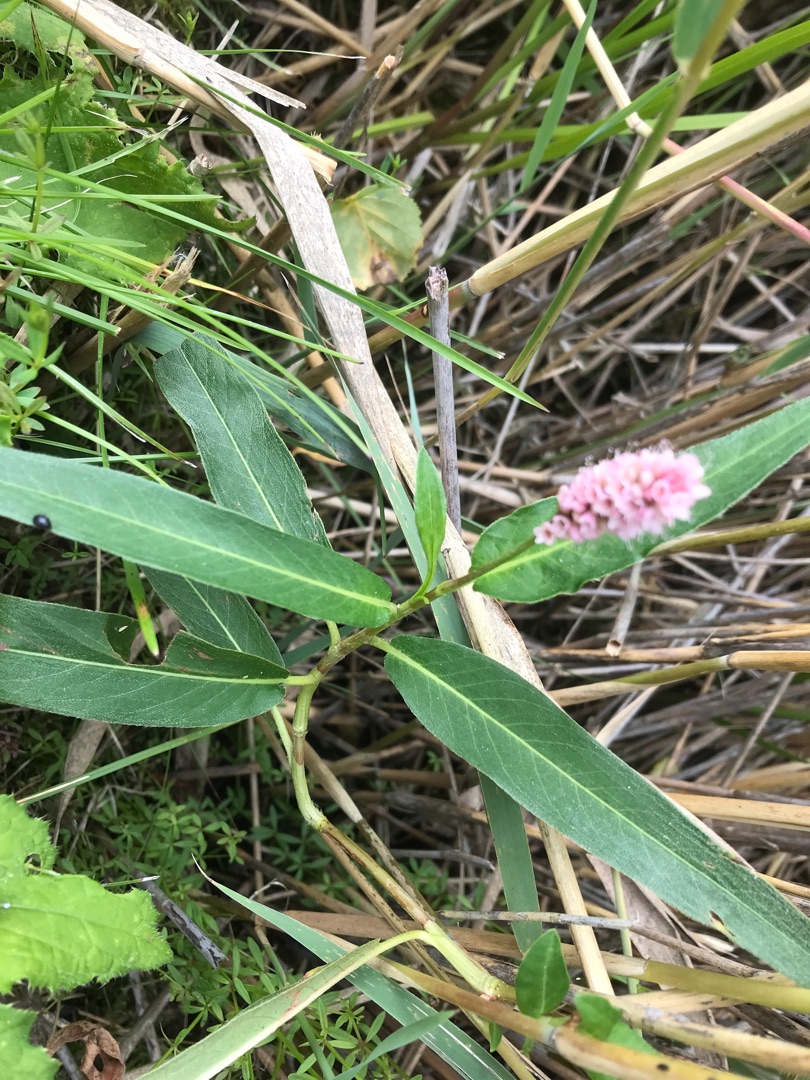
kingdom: Plantae
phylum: Tracheophyta
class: Magnoliopsida
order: Caryophyllales
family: Polygonaceae
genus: Persicaria
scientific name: Persicaria amphibia
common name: Vand-pileurt
